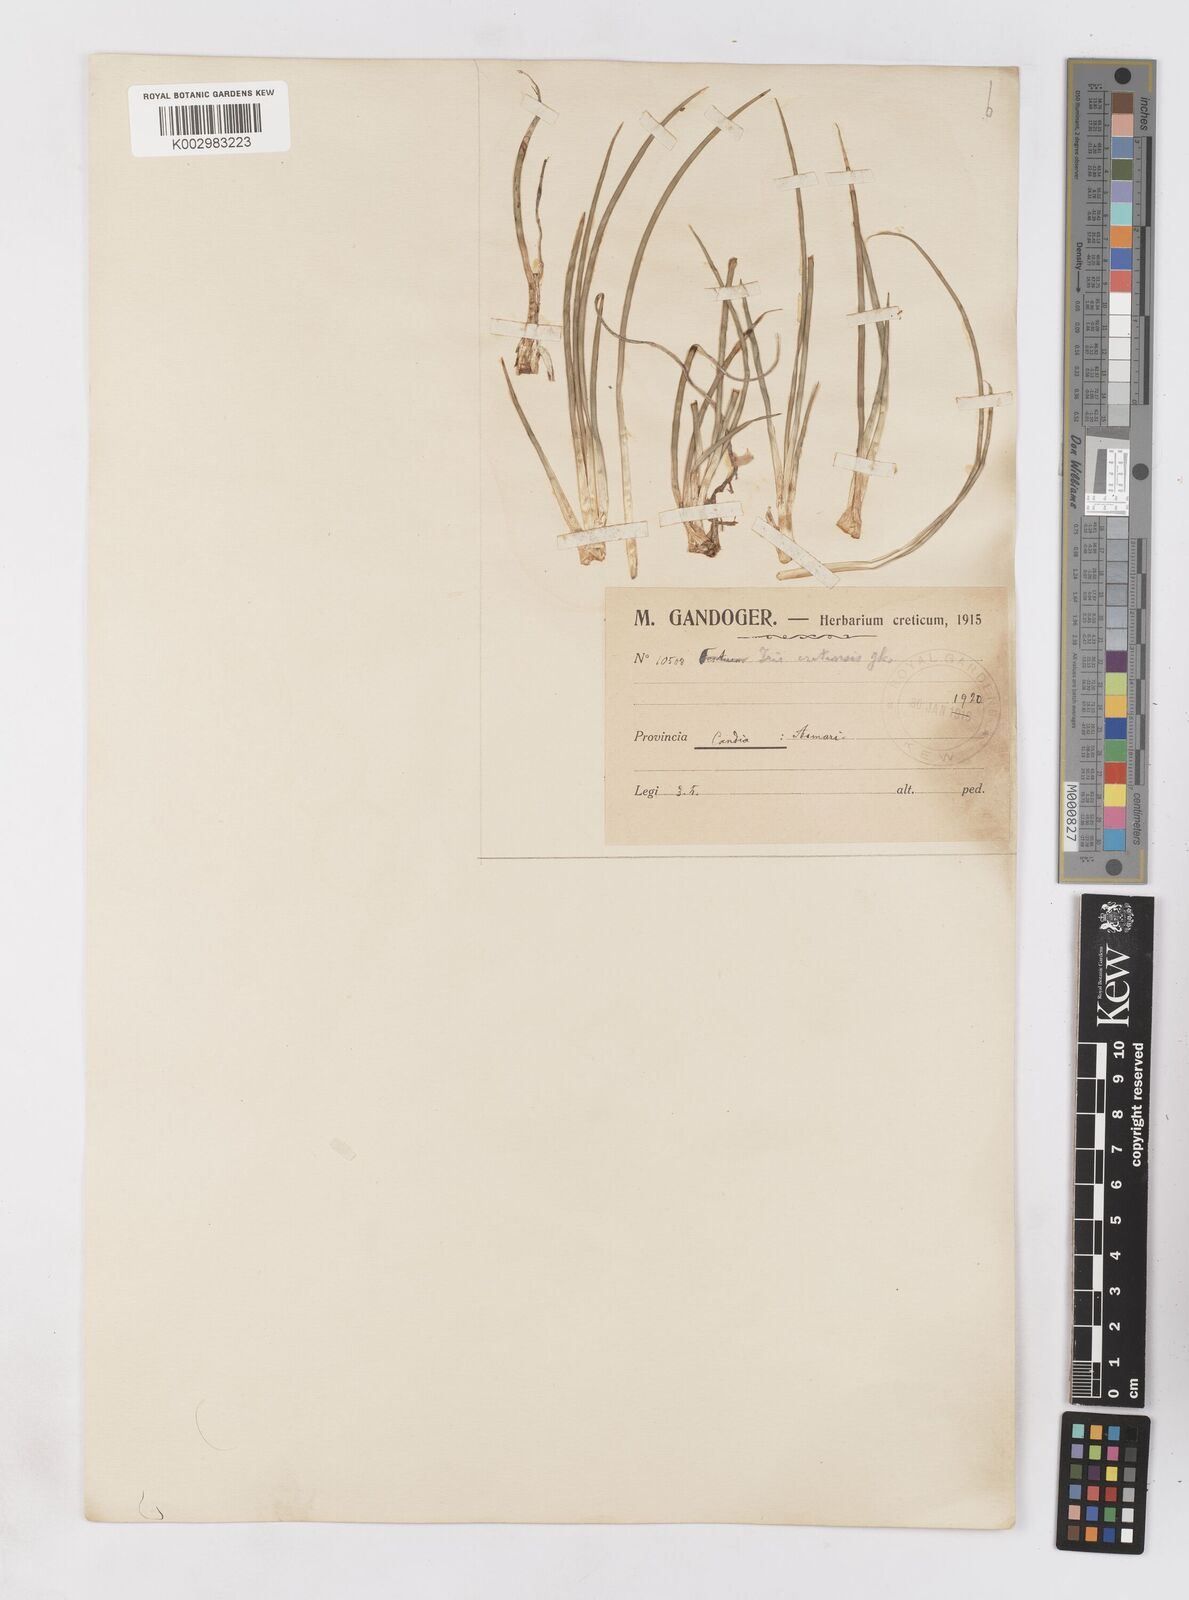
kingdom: Plantae
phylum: Tracheophyta
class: Liliopsida
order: Asparagales
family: Iridaceae
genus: Iris
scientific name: Iris unguicularis
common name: Algerian iris
